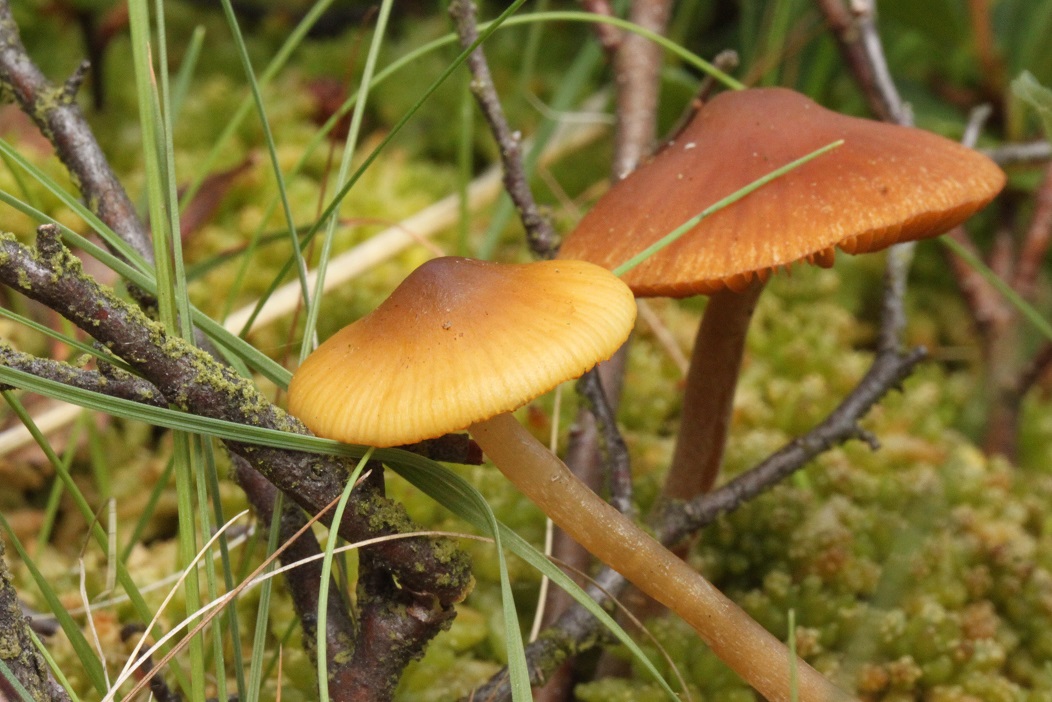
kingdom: Fungi
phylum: Basidiomycota
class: Agaricomycetes
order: Agaricales
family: Hymenogastraceae
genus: Galerina
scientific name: Galerina hybrida
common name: hængesæk-hjelmhat
